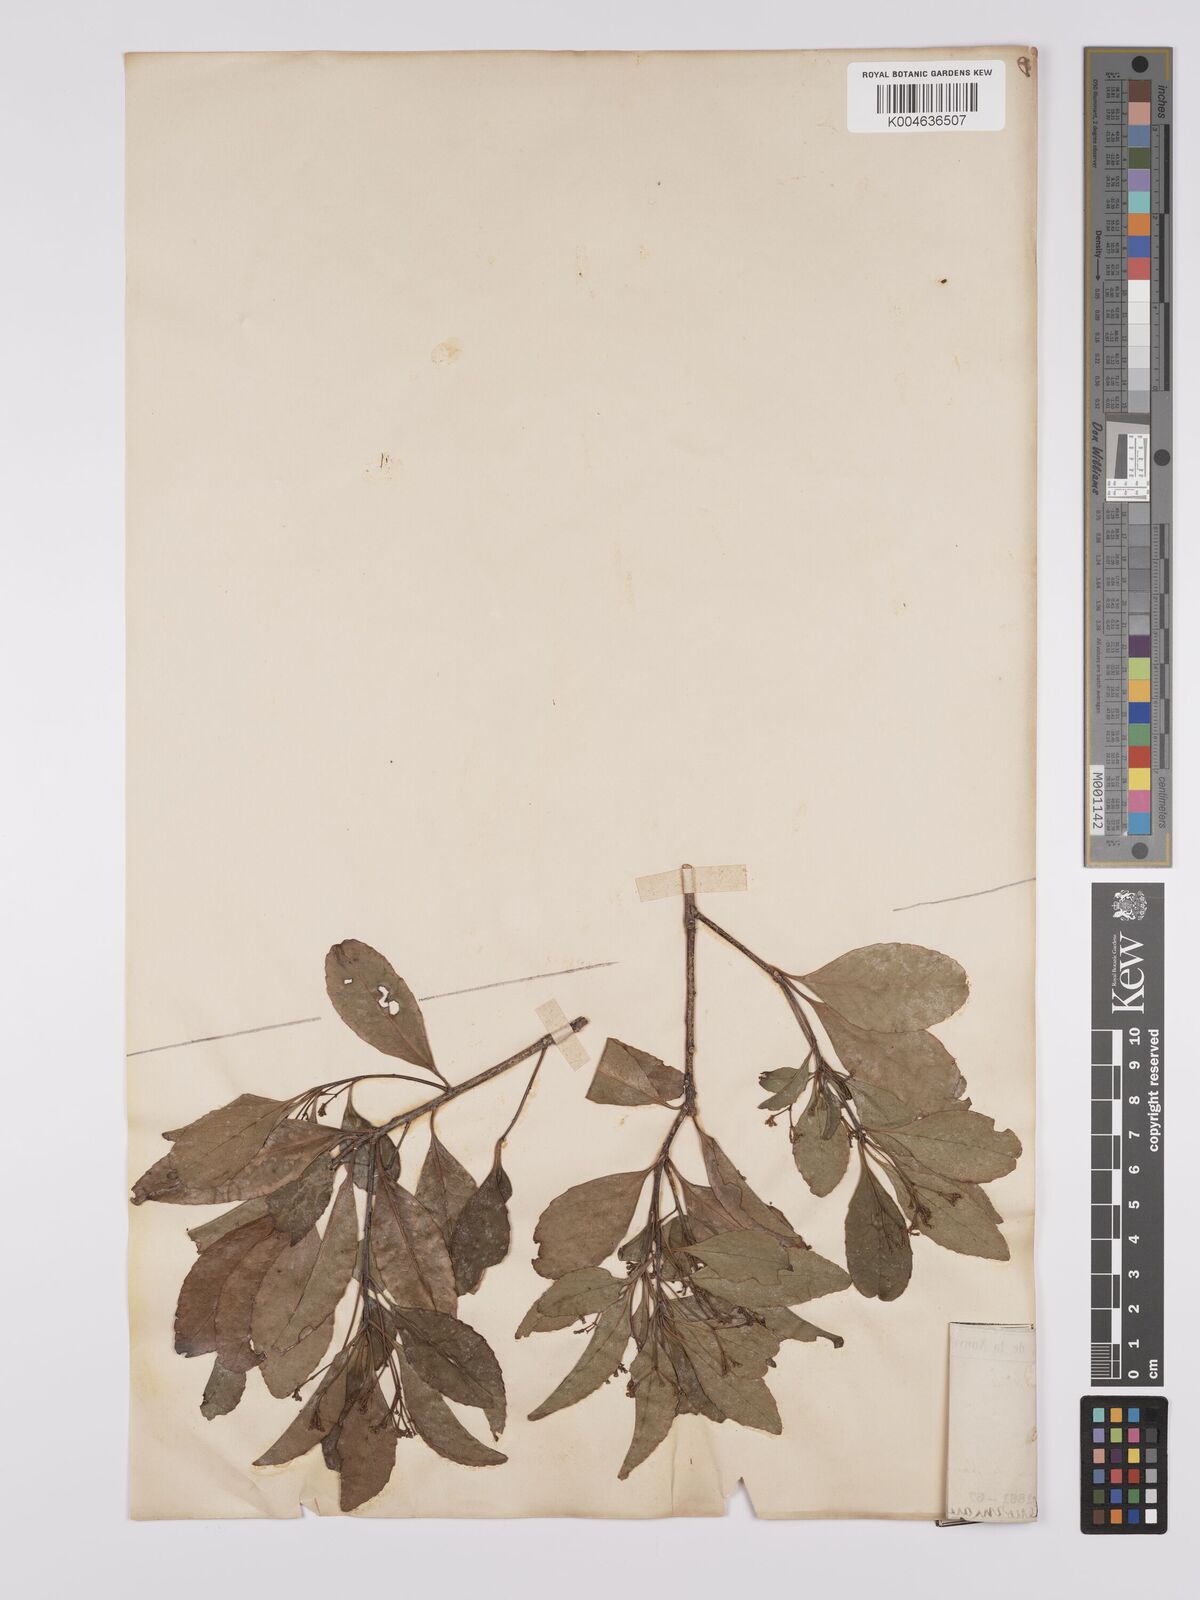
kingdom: Plantae
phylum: Tracheophyta
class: Magnoliopsida
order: Celastrales
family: Celastraceae
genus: Celastrus
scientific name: Celastrus
